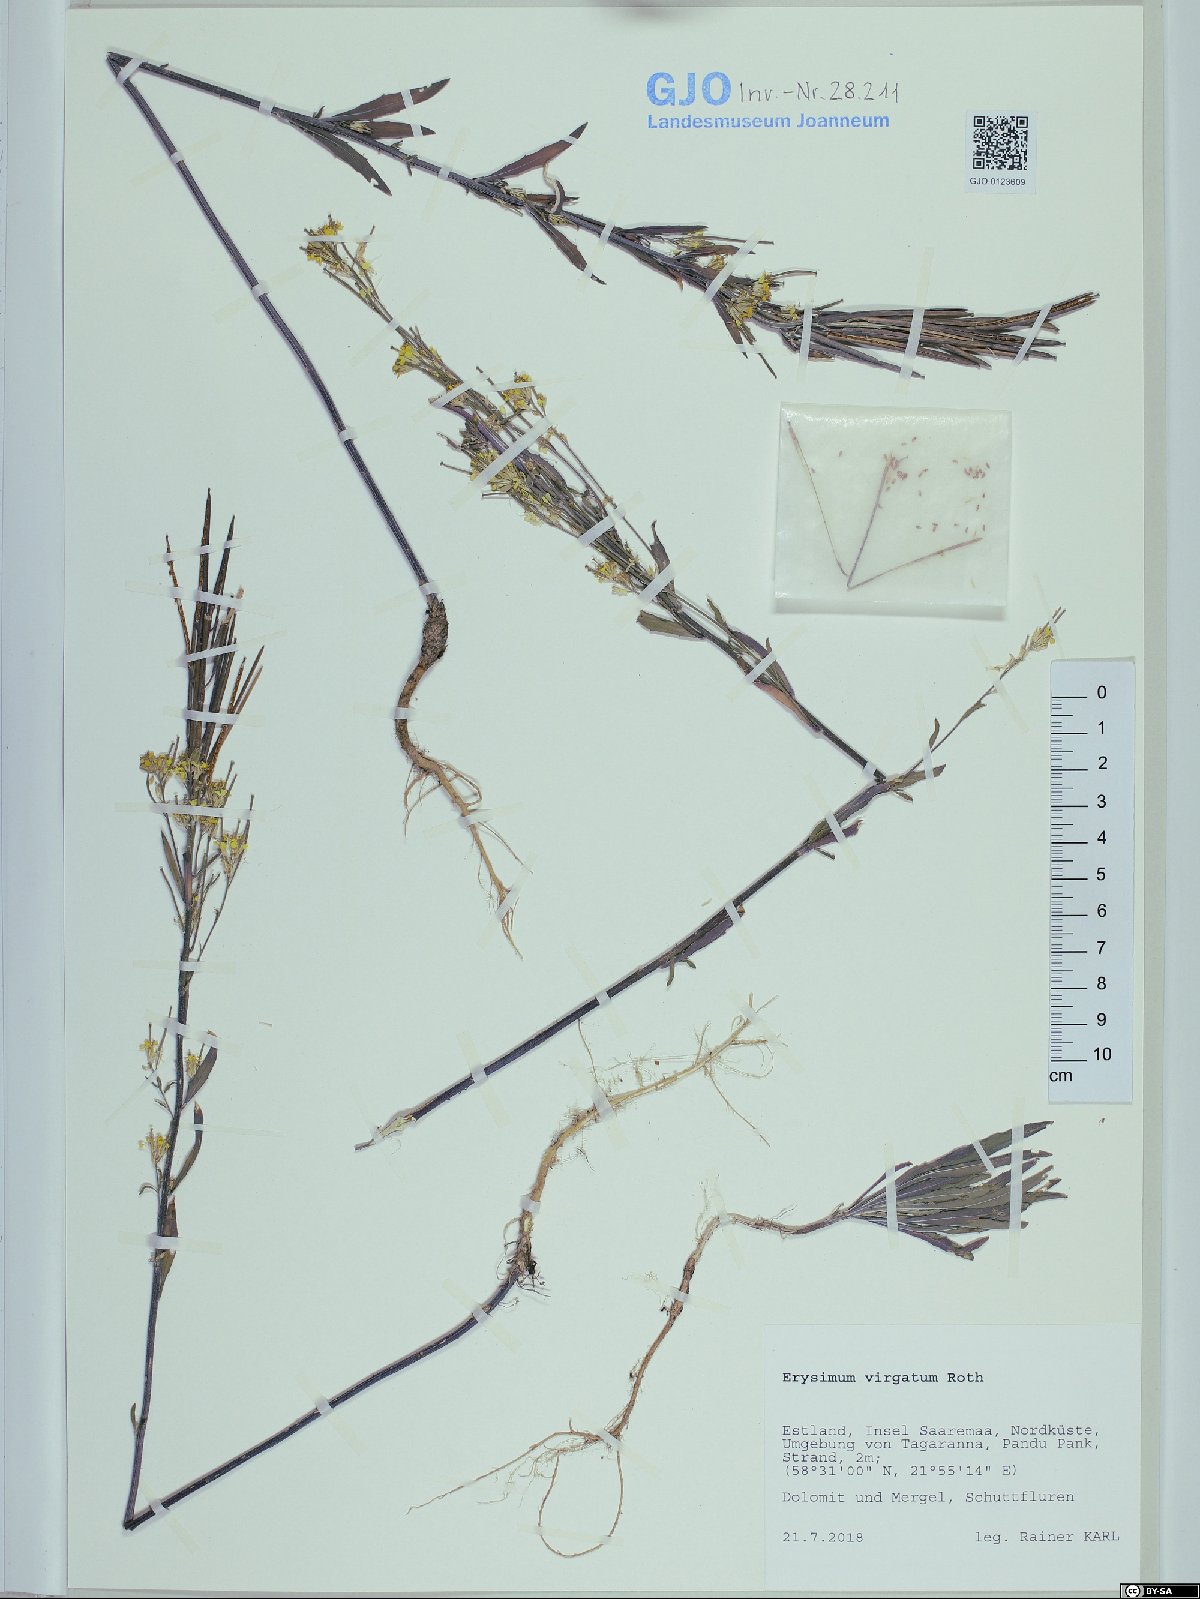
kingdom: Plantae
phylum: Tracheophyta
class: Magnoliopsida
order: Brassicales
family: Brassicaceae
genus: Erysimum
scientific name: Erysimum virgatum
